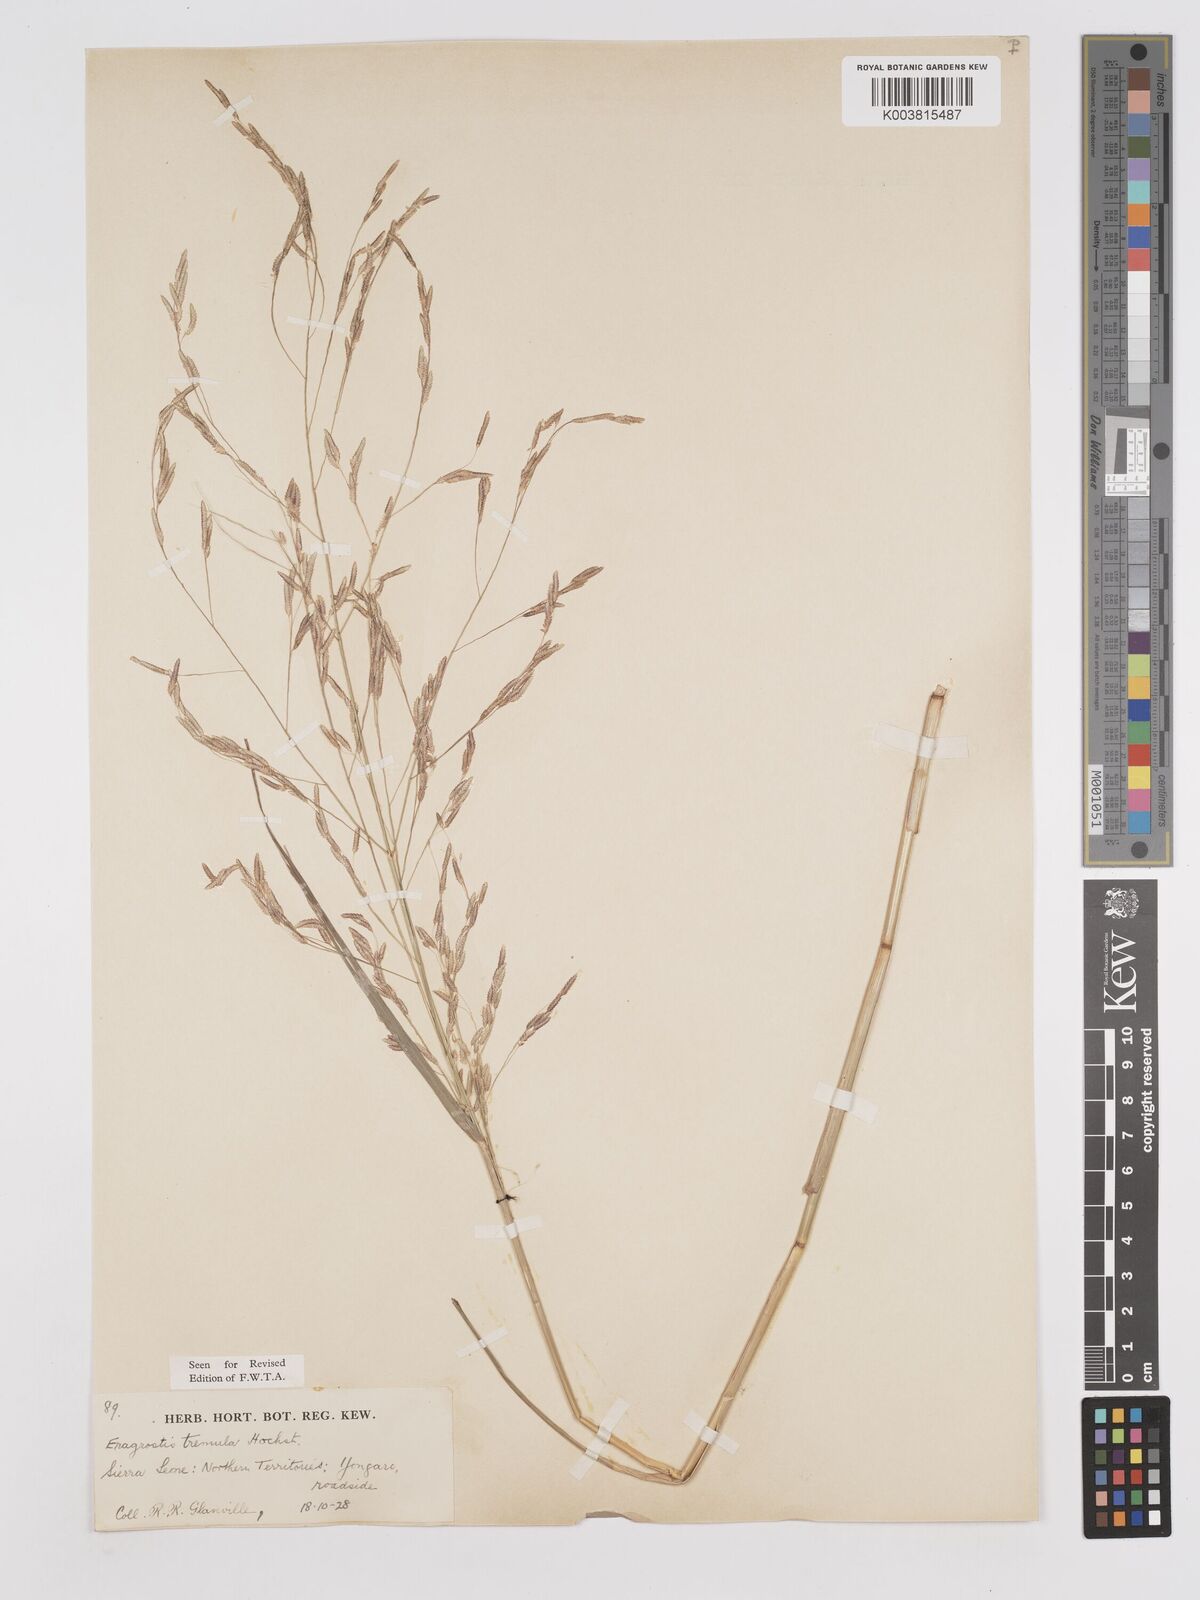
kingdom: Plantae
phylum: Tracheophyta
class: Liliopsida
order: Poales
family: Poaceae
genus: Eragrostis
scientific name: Eragrostis tremula
